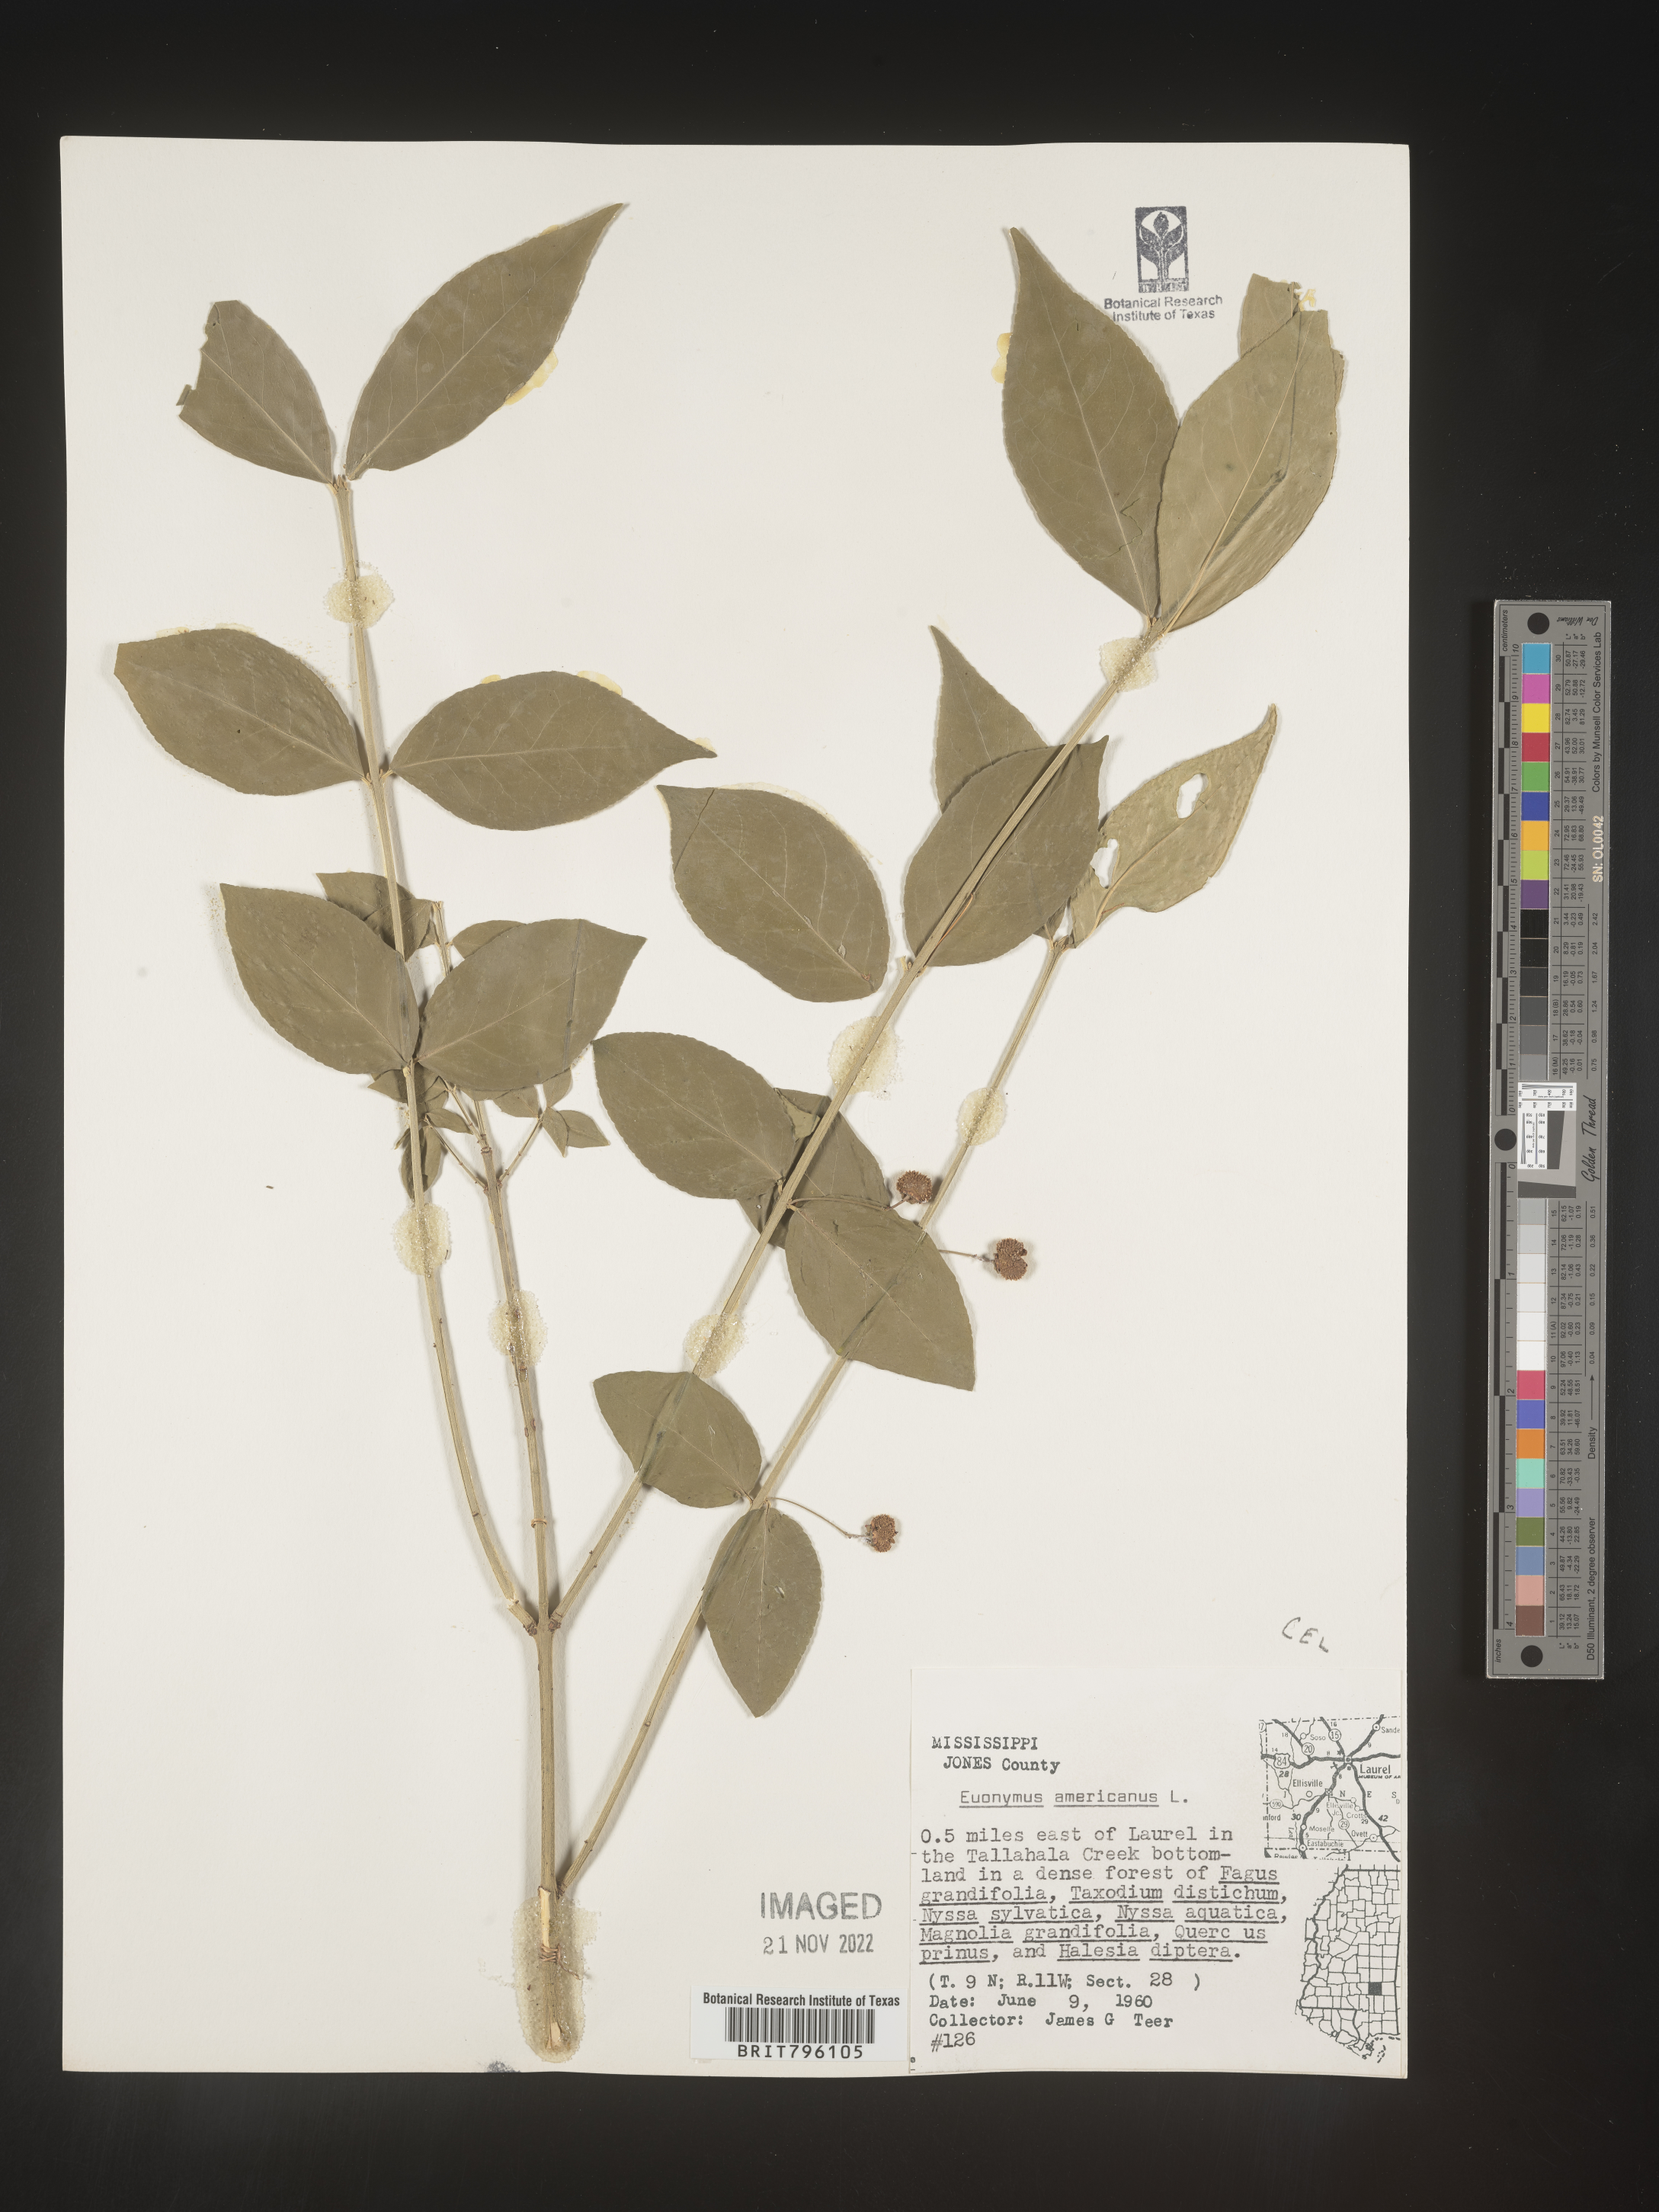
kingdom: Plantae
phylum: Tracheophyta
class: Magnoliopsida
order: Celastrales
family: Celastraceae
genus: Euonymus
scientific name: Euonymus americanus
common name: Bursting-heart
